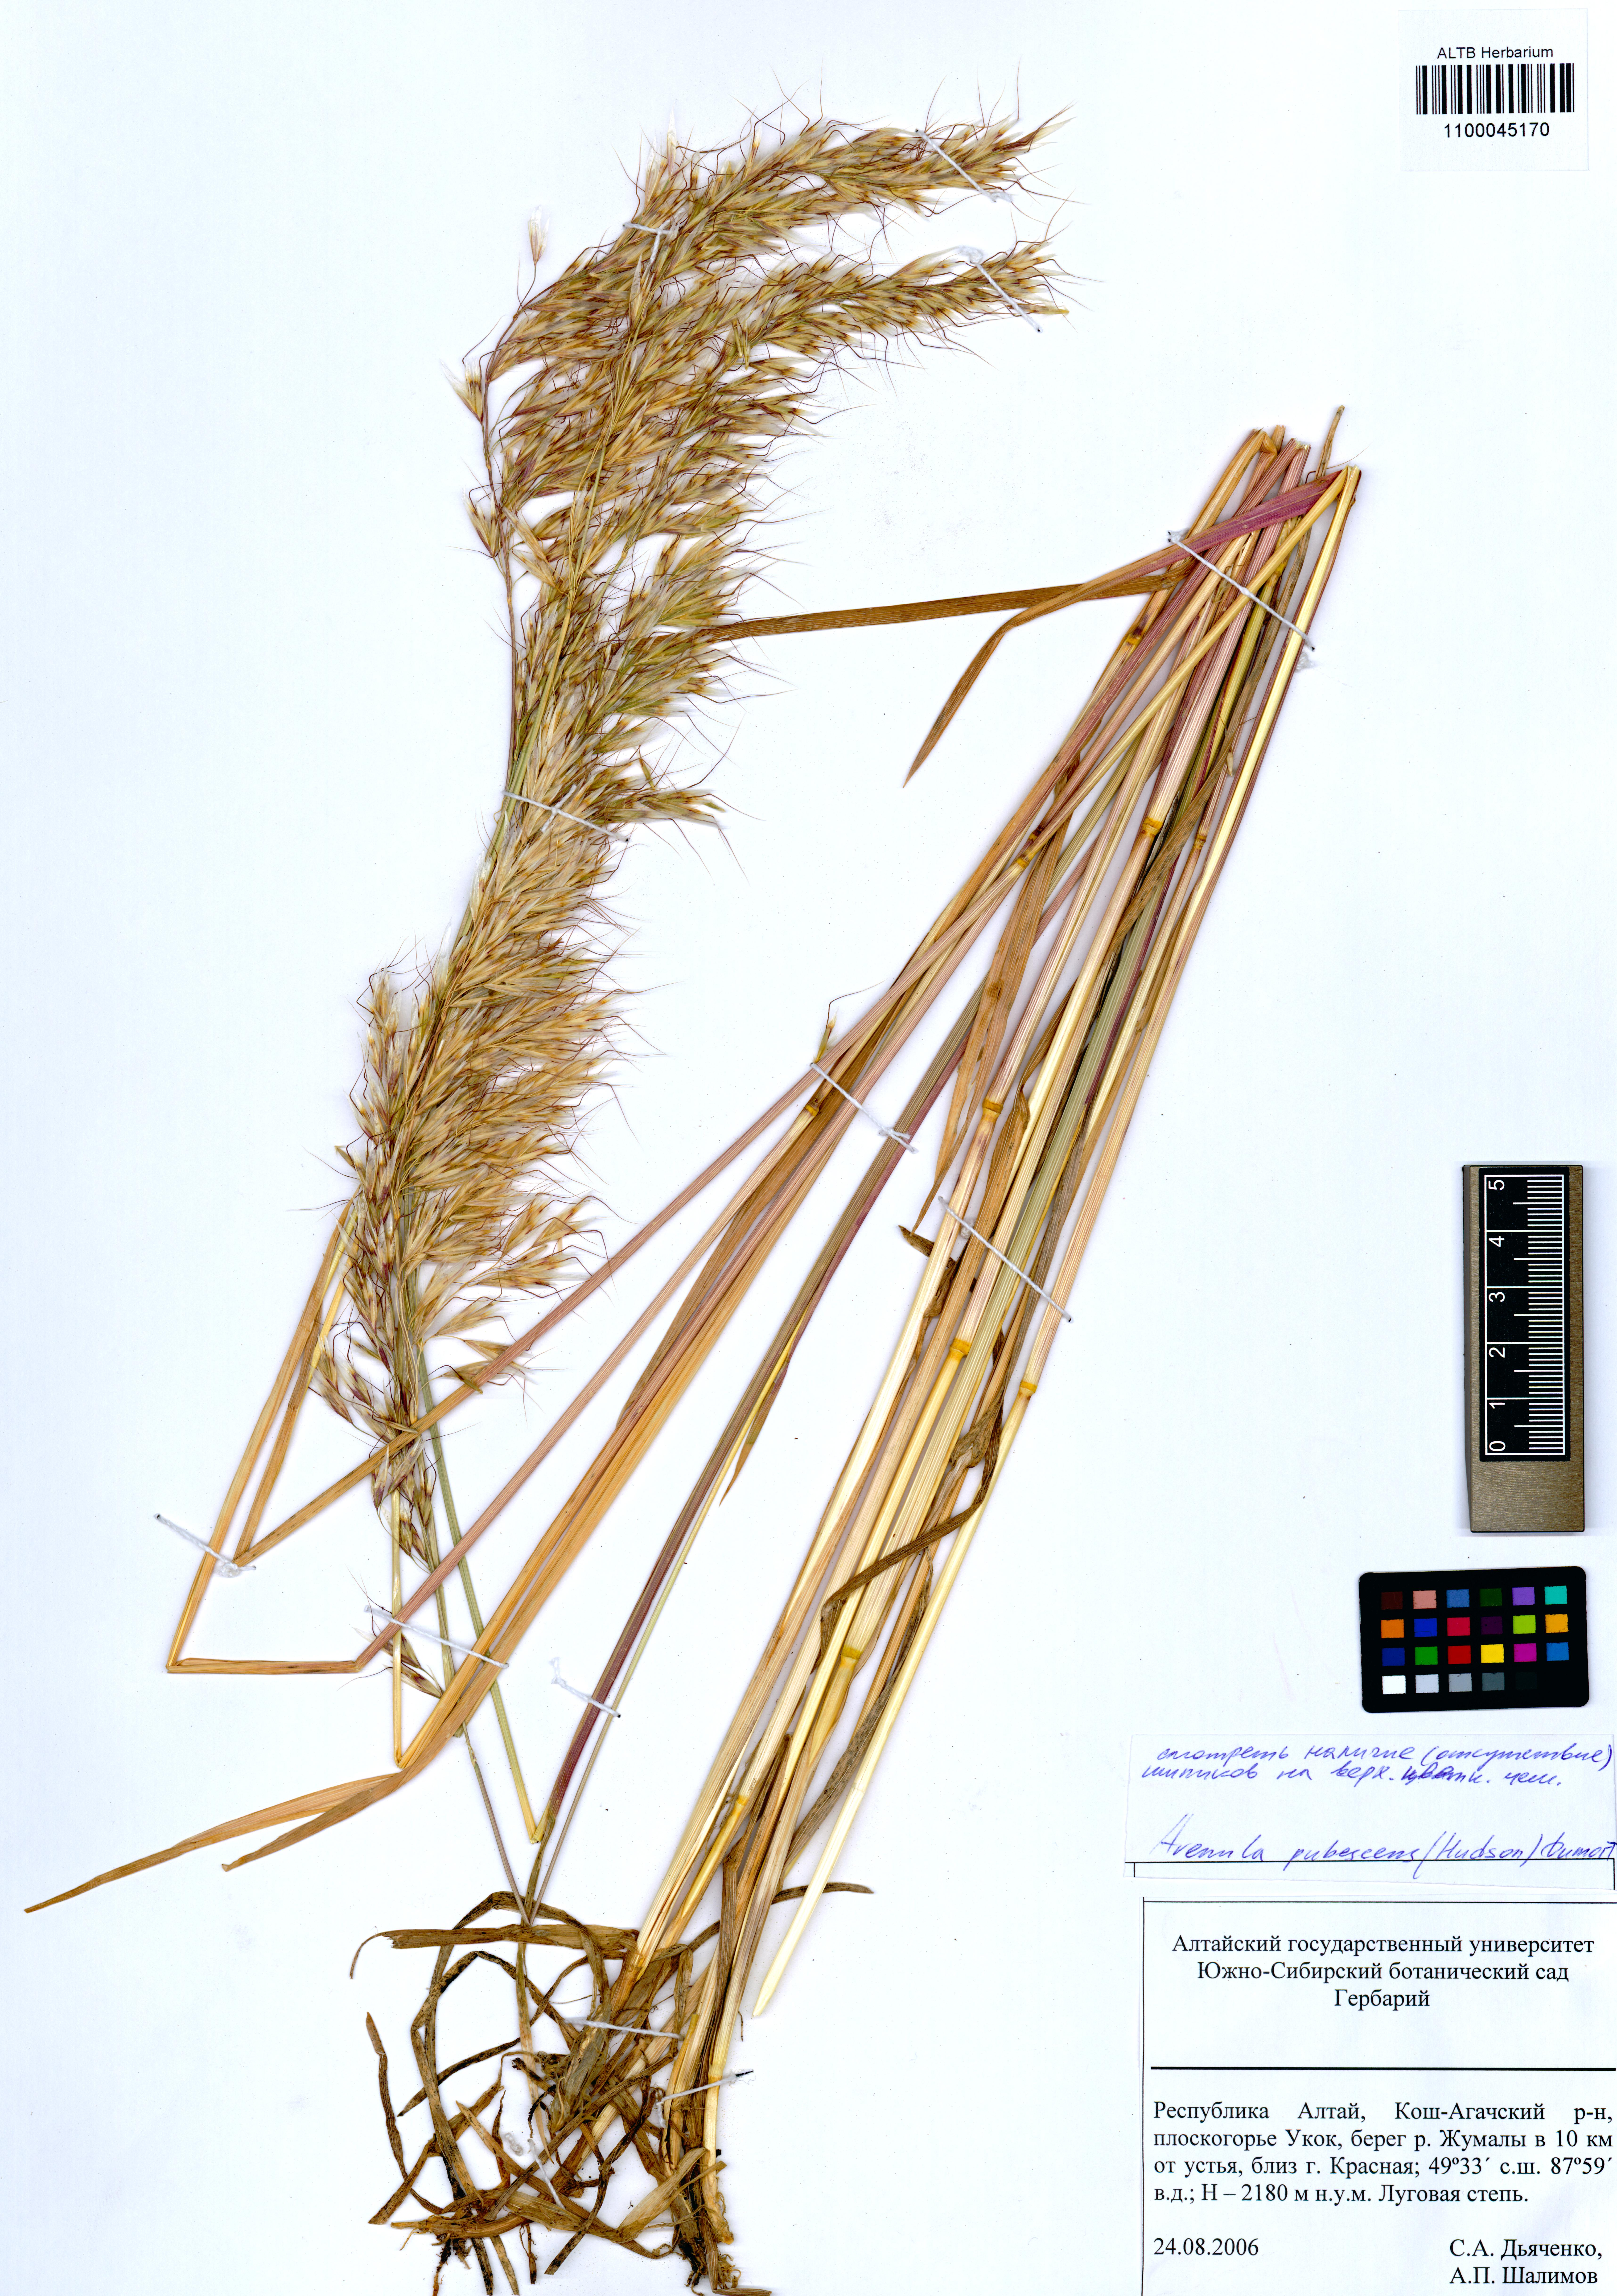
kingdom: Plantae
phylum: Tracheophyta
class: Liliopsida
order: Poales
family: Poaceae
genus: Avenula
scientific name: Avenula pubescens
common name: Downy alpine oatgrass
